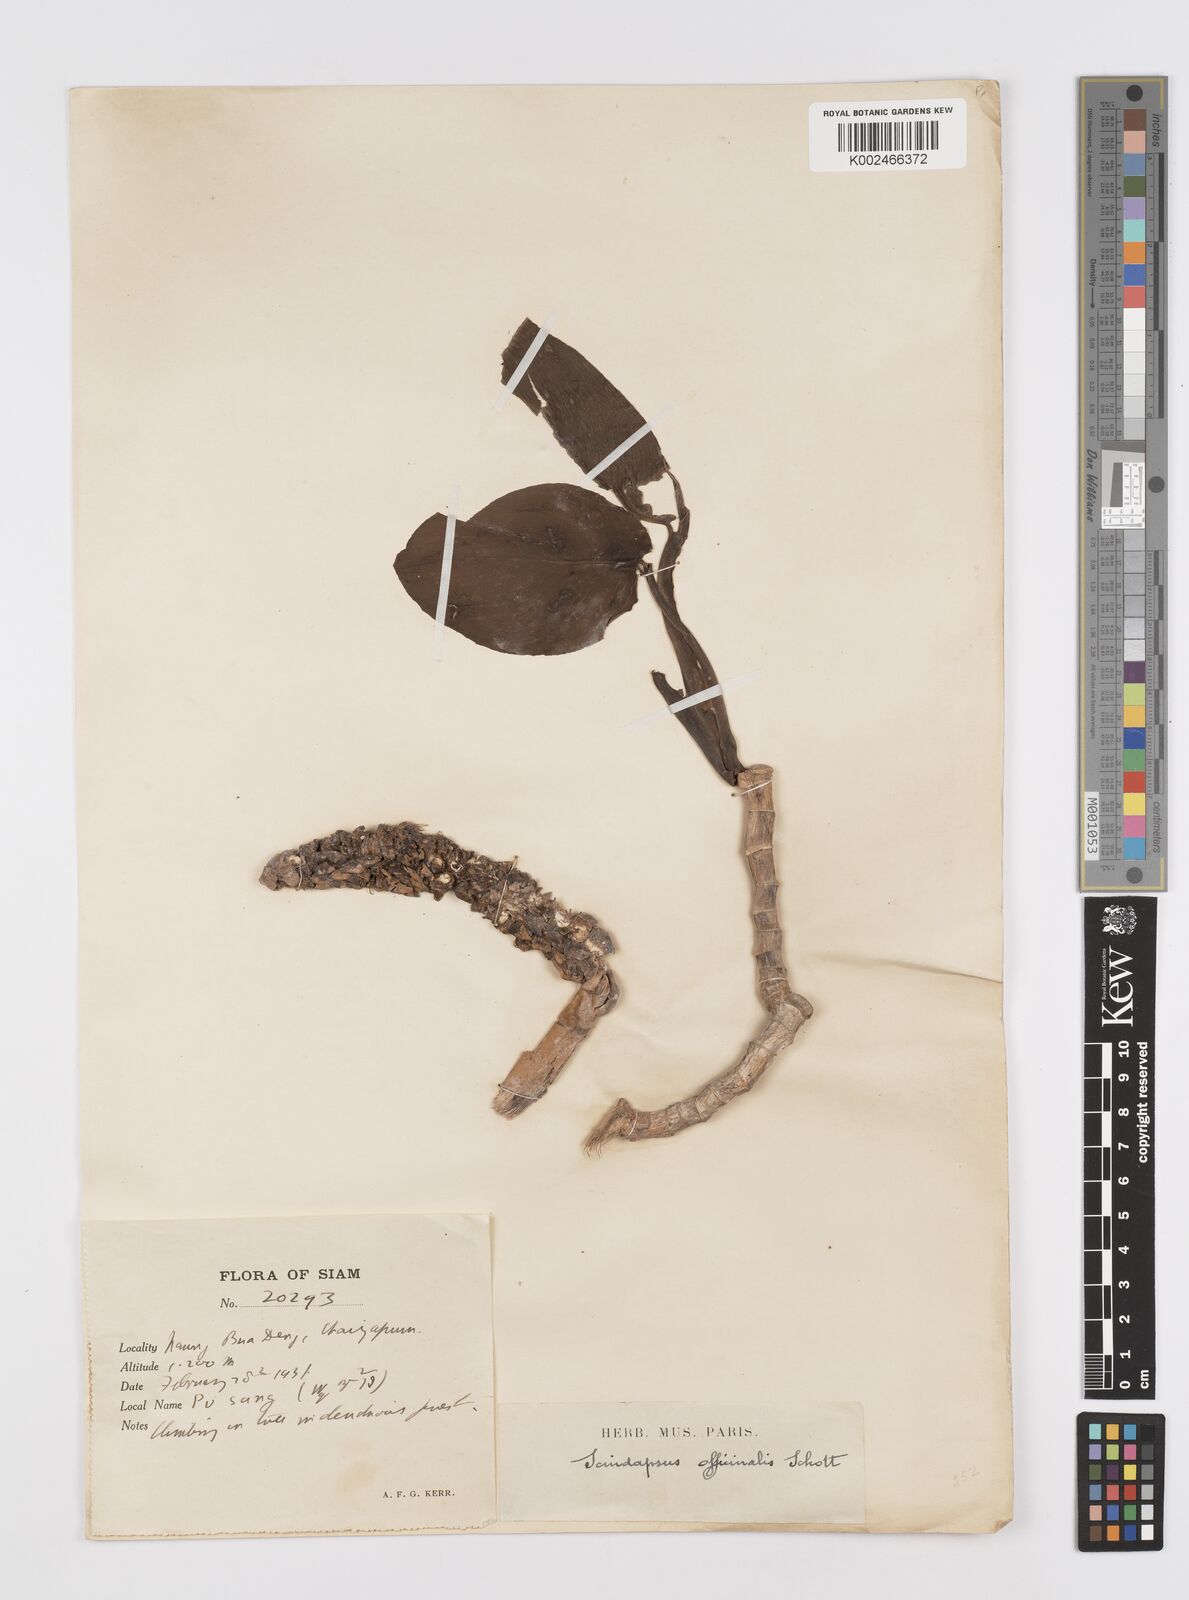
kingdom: Plantae
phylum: Tracheophyta
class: Liliopsida
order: Alismatales
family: Araceae
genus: Scindapsus
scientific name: Scindapsus officinalis
